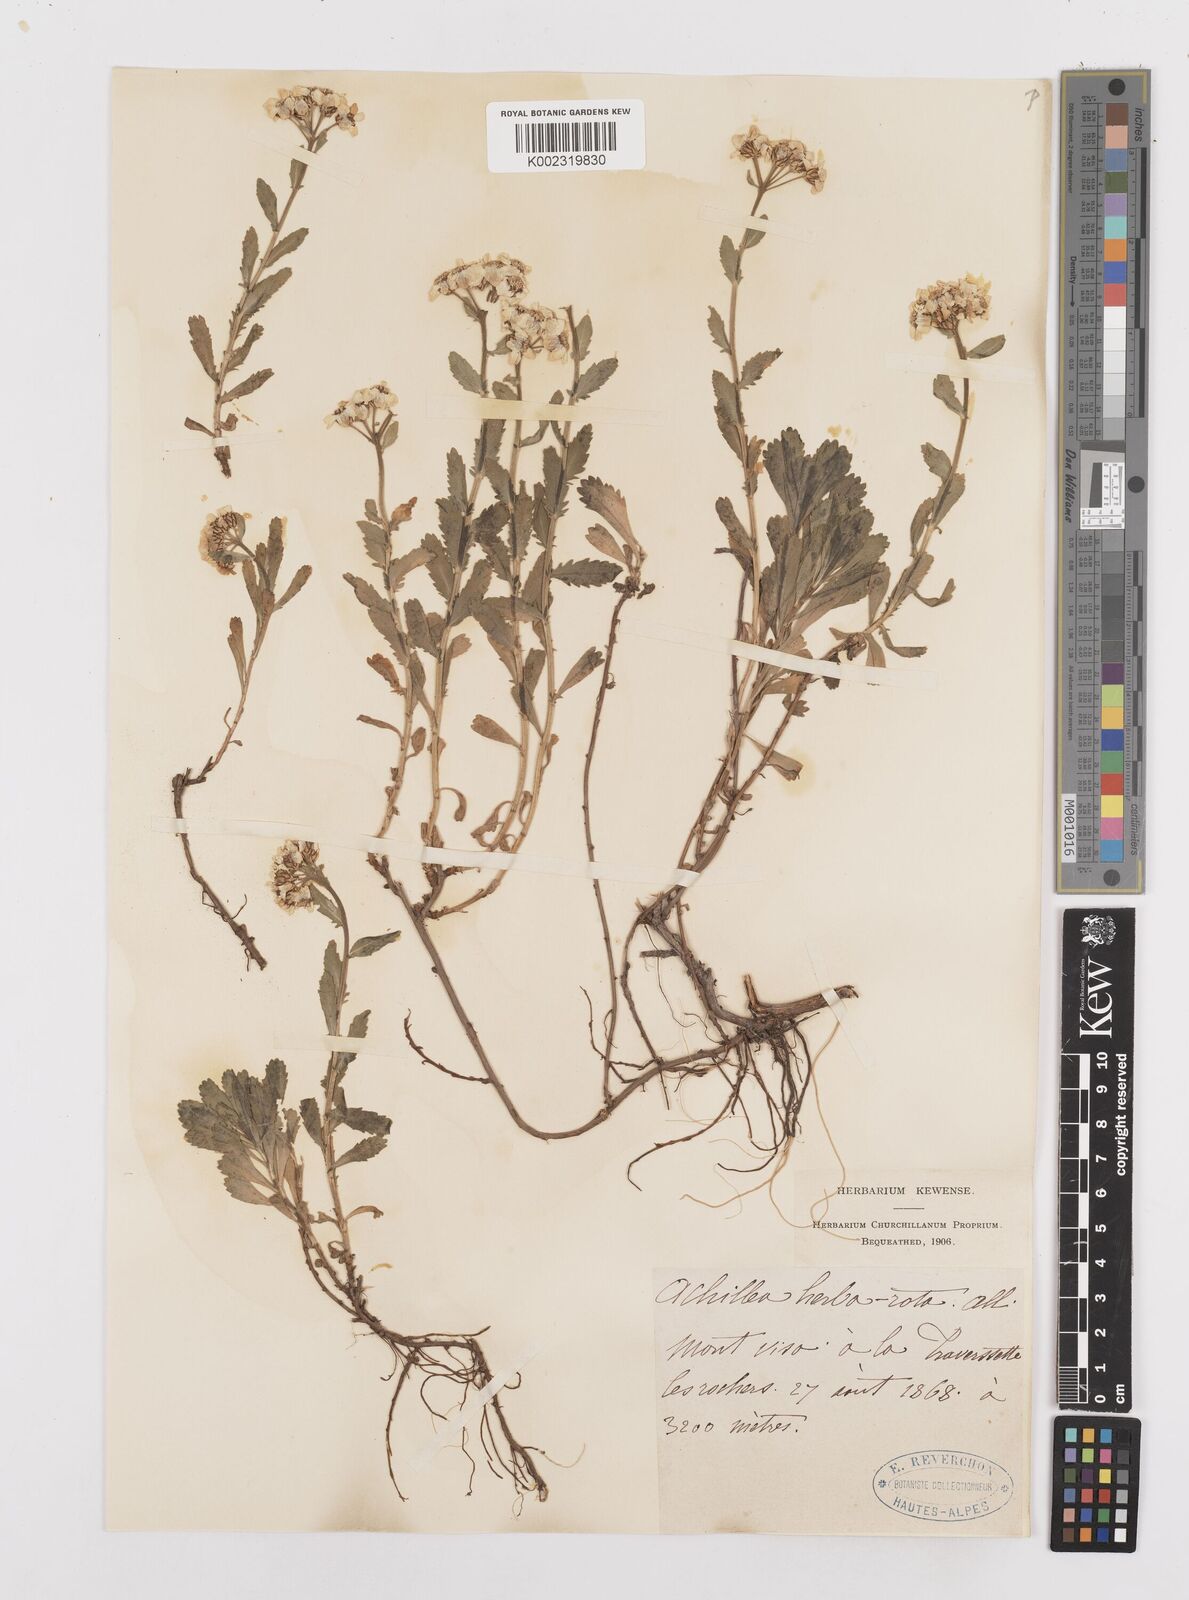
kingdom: Plantae
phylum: Tracheophyta
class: Magnoliopsida
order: Asterales
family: Asteraceae
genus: Achillea
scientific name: Achillea erba-rotta
